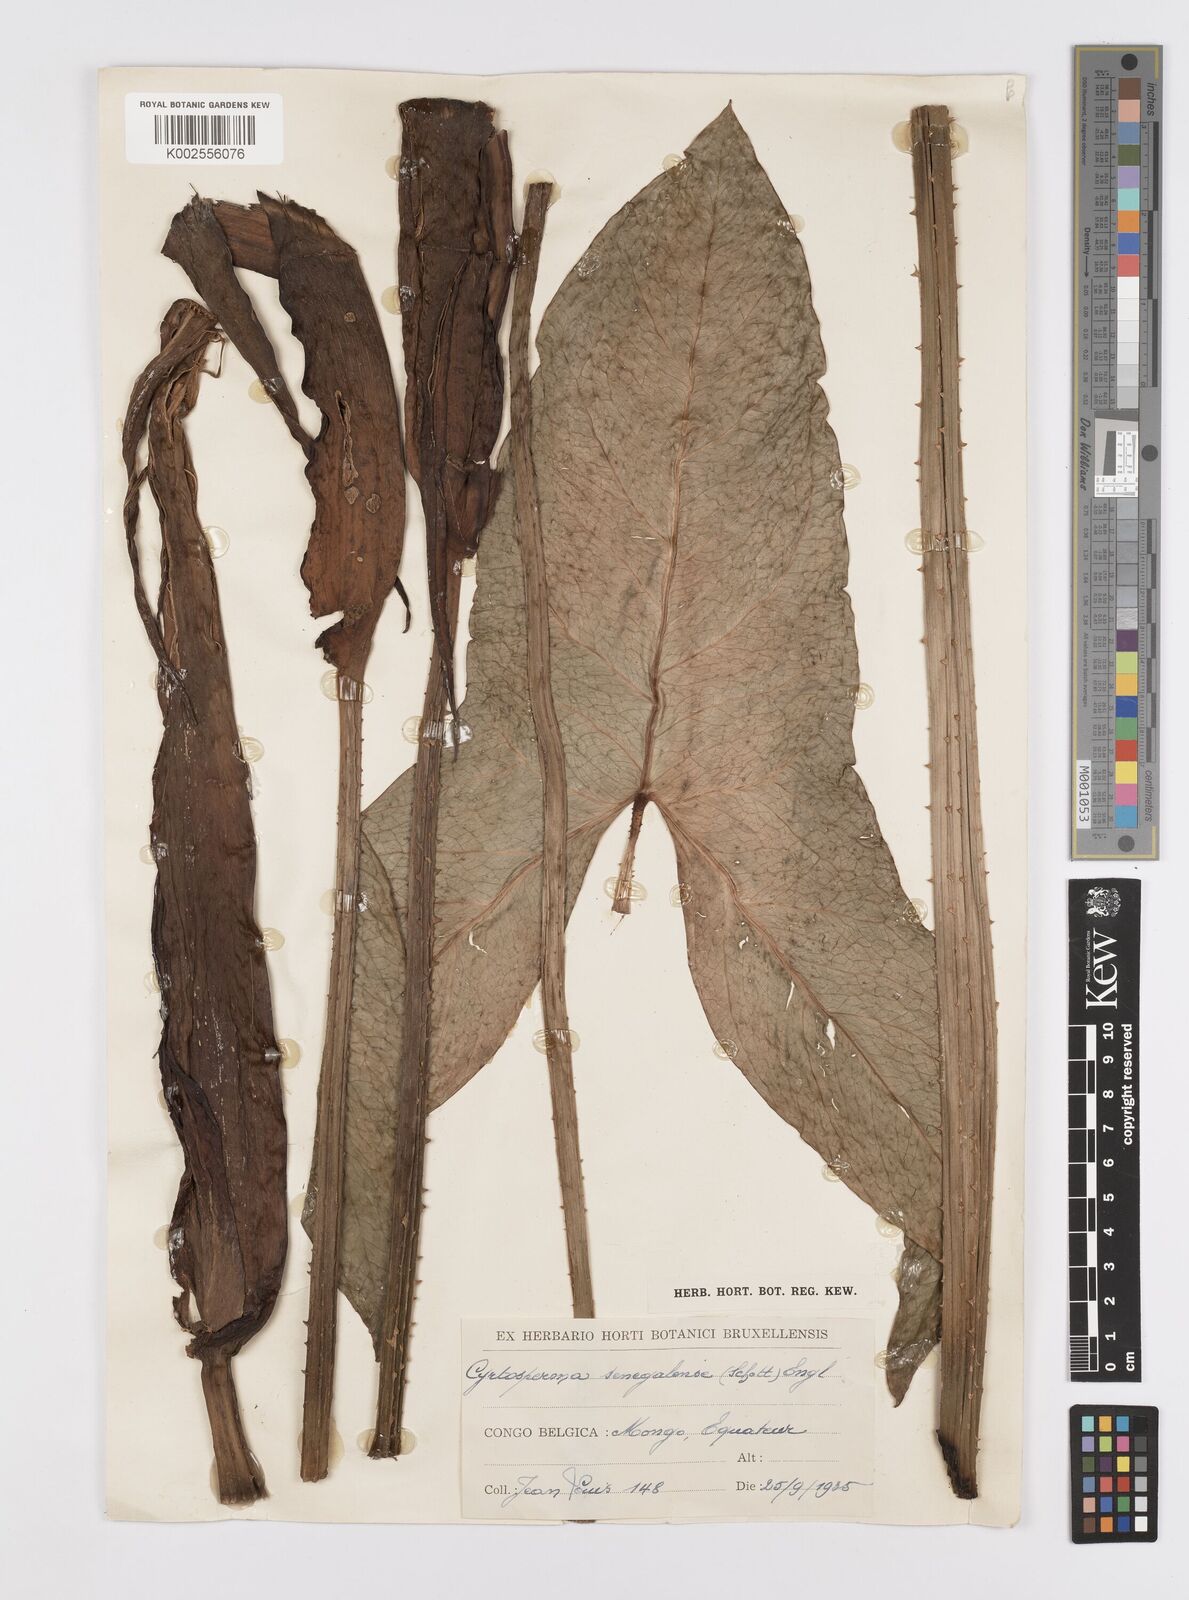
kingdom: Plantae
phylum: Tracheophyta
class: Liliopsida
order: Alismatales
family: Araceae
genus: Lasimorpha
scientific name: Lasimorpha senegalensis
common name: Swamp arum
